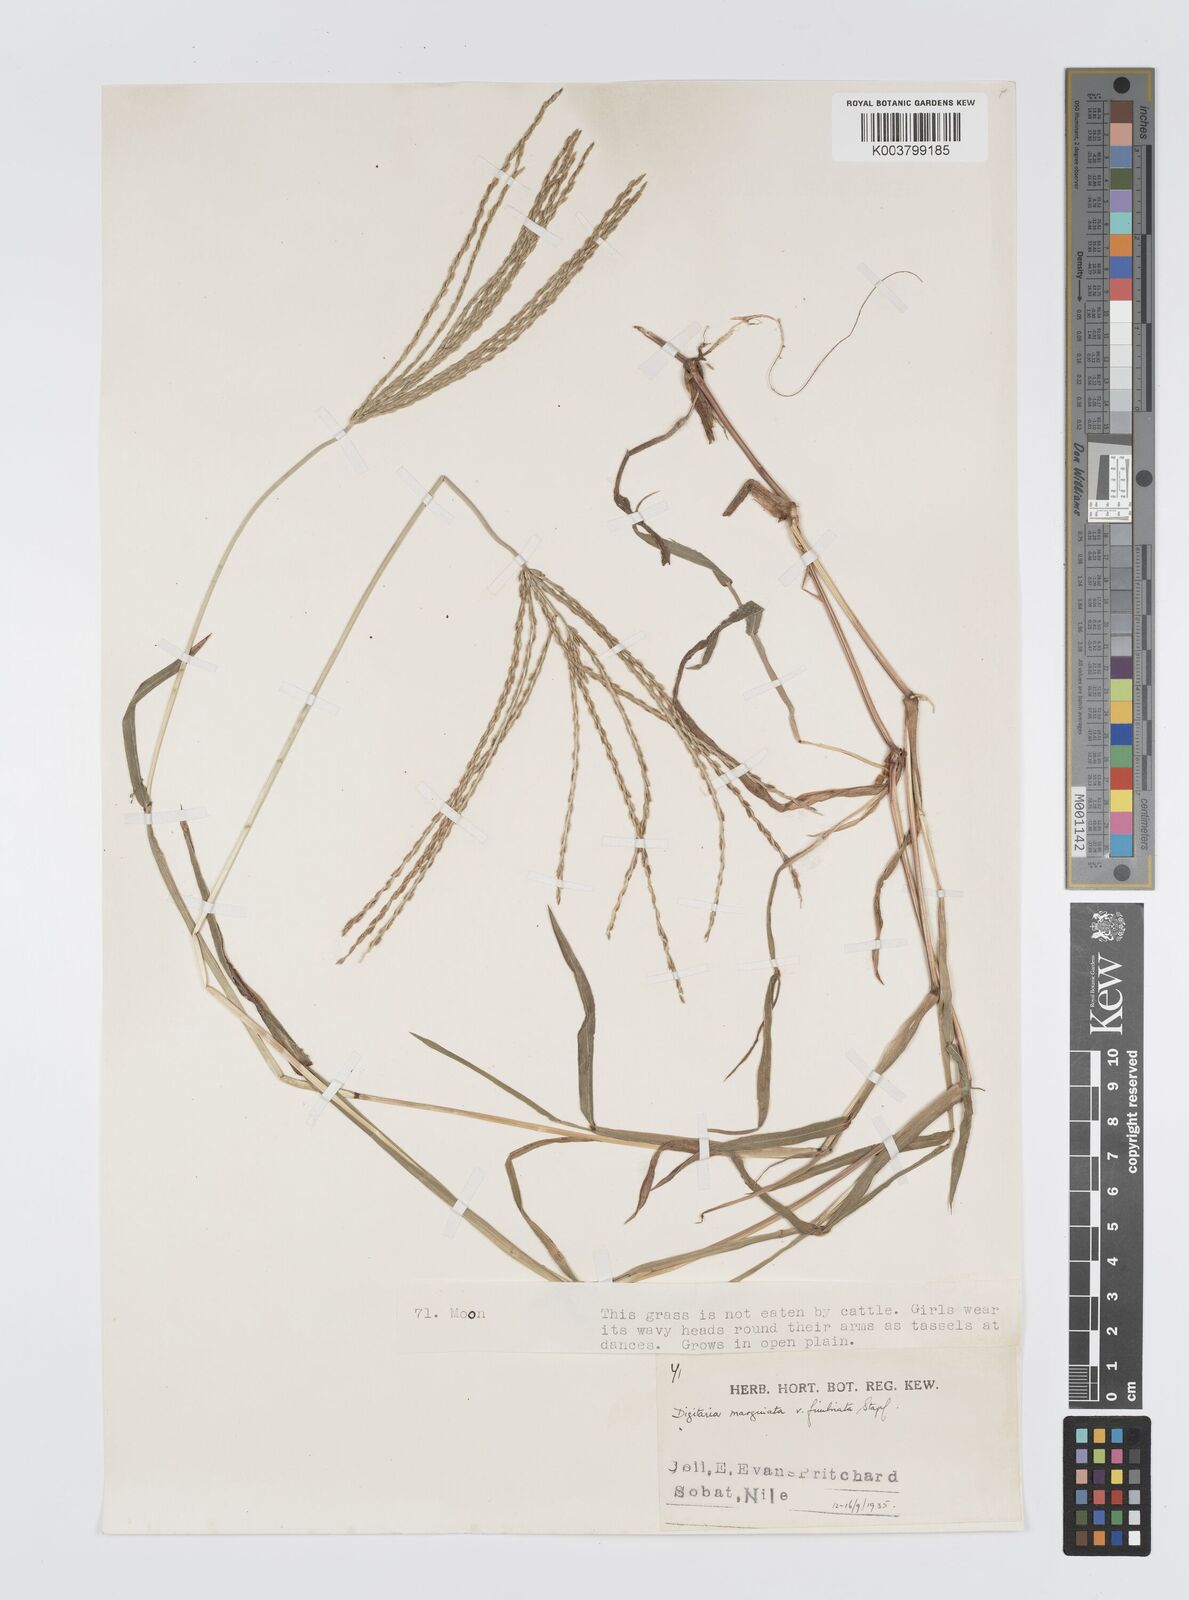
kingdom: Plantae
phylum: Tracheophyta
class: Liliopsida
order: Poales
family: Poaceae
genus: Digitaria
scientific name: Digitaria spec
